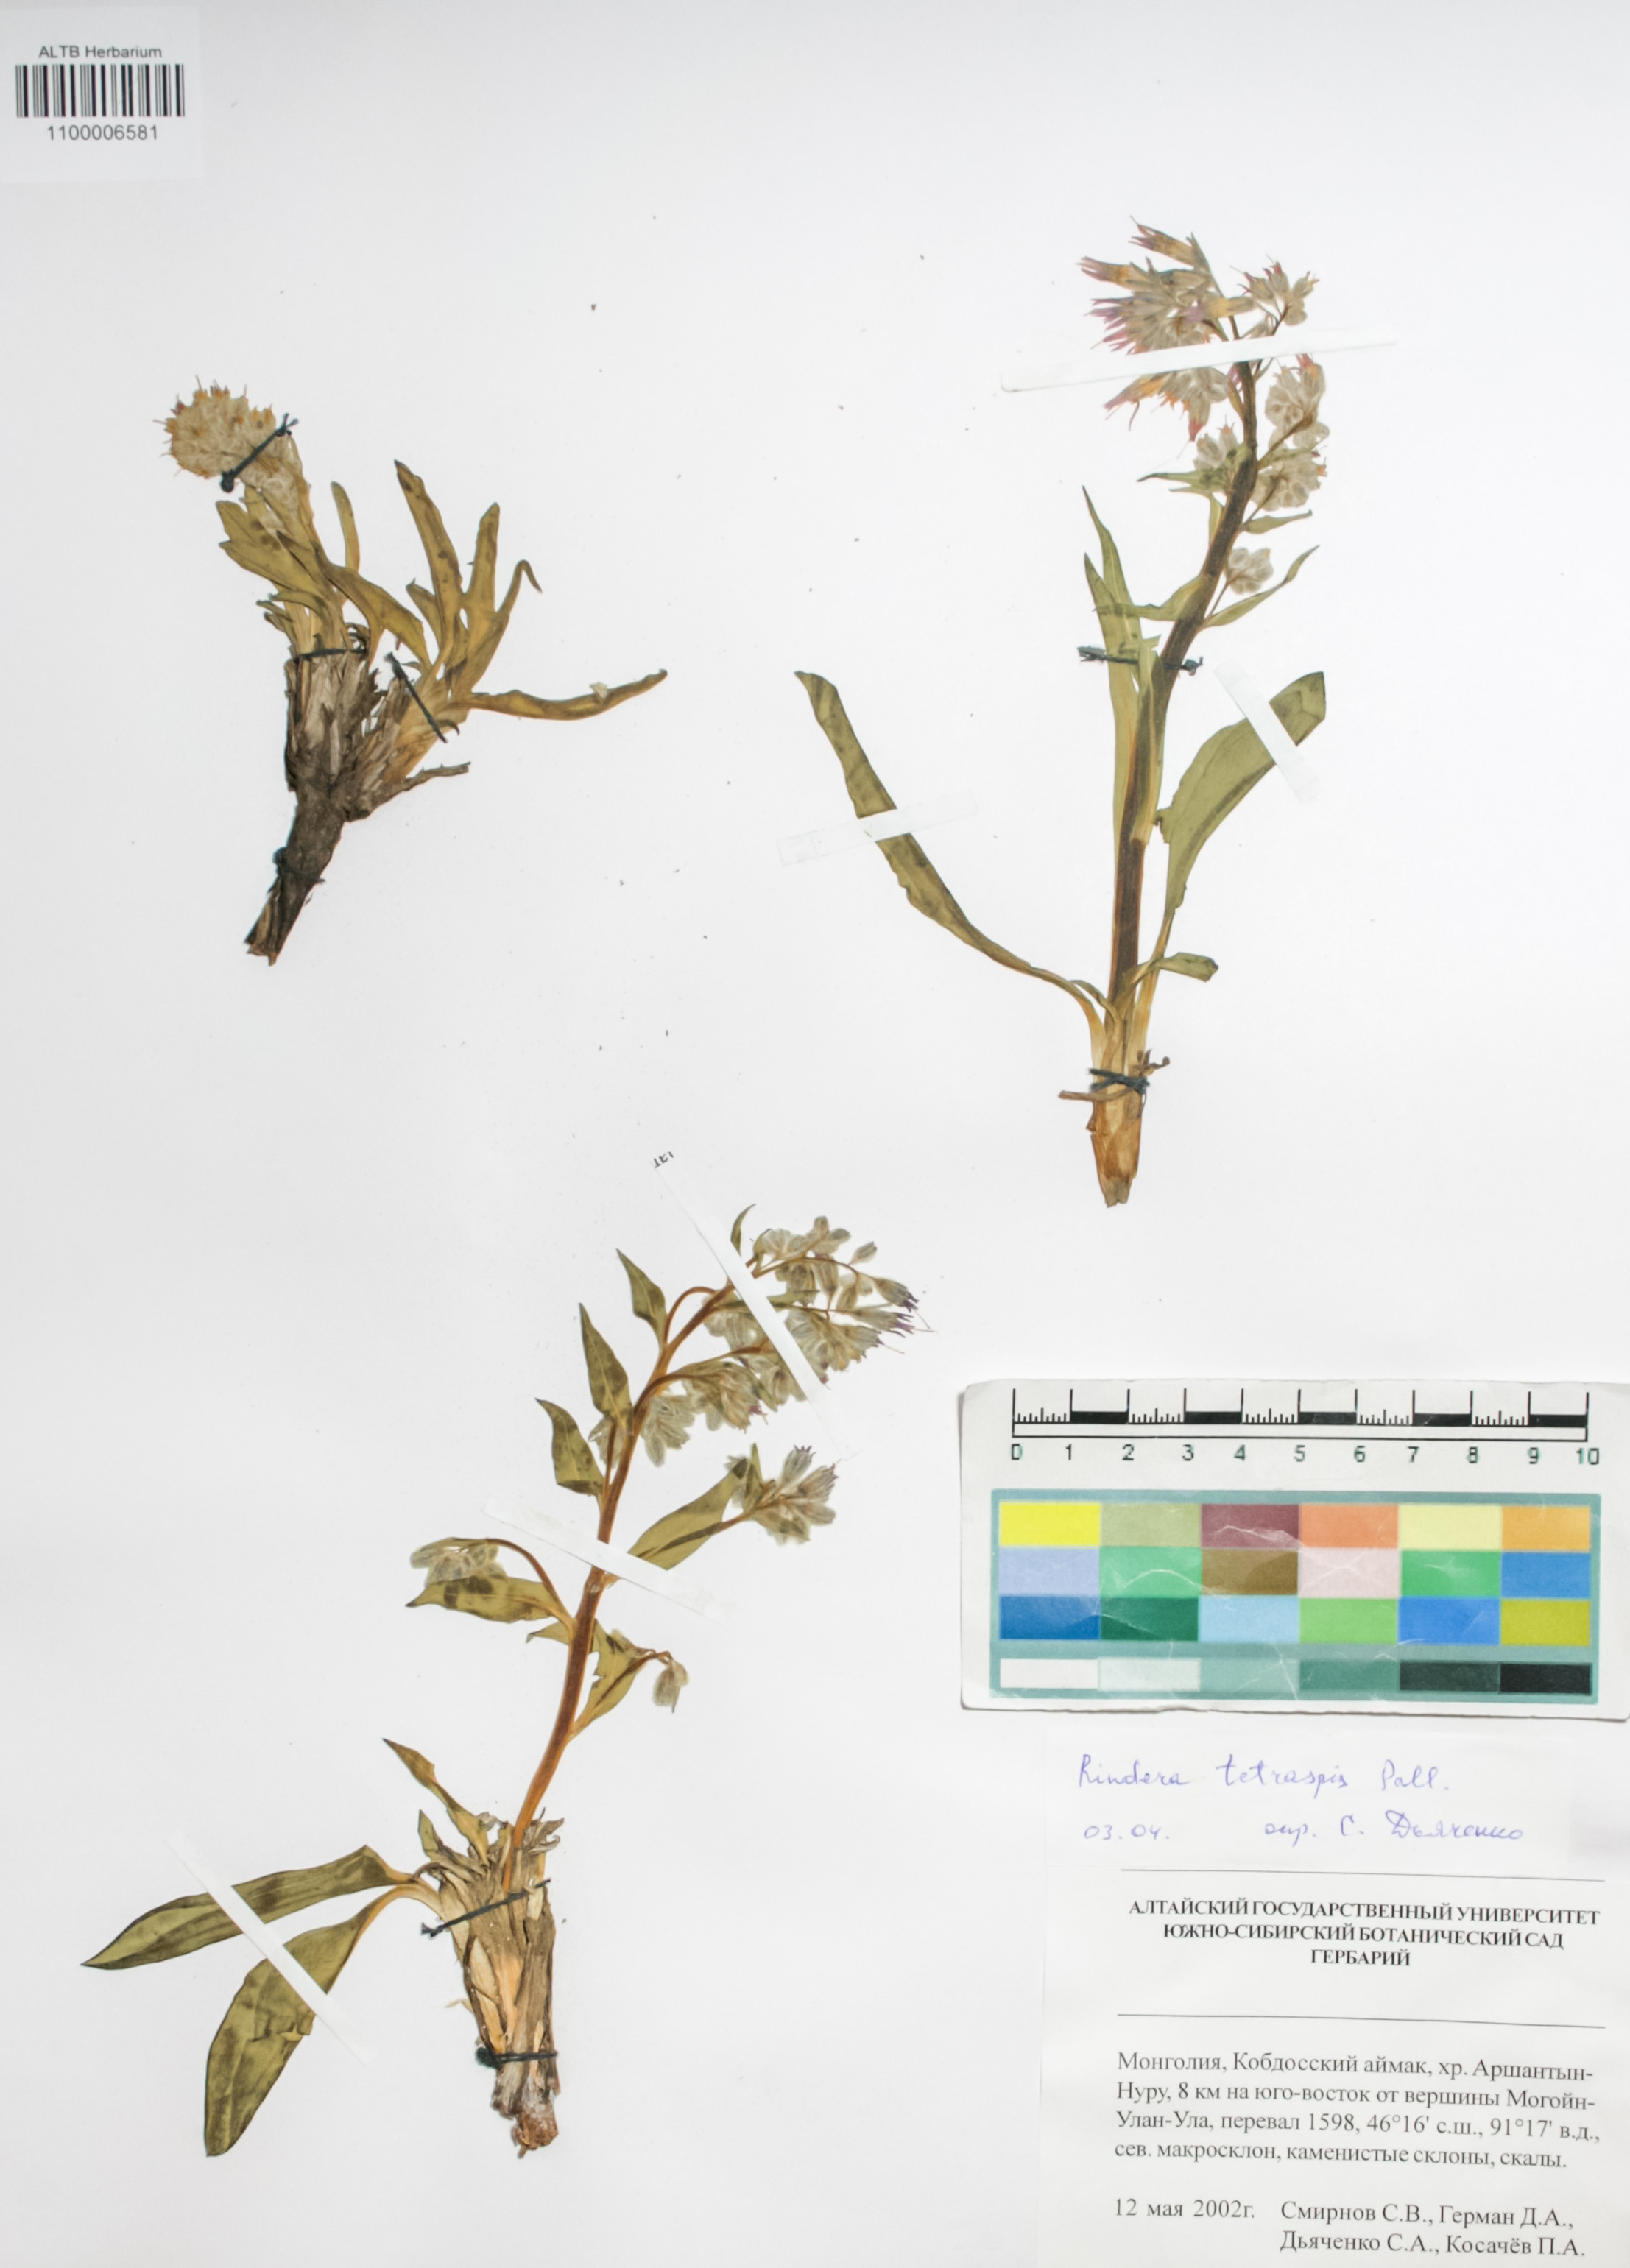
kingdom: Plantae
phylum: Tracheophyta
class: Magnoliopsida
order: Boraginales
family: Boraginaceae
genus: Rindera
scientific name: Rindera tetraspis
